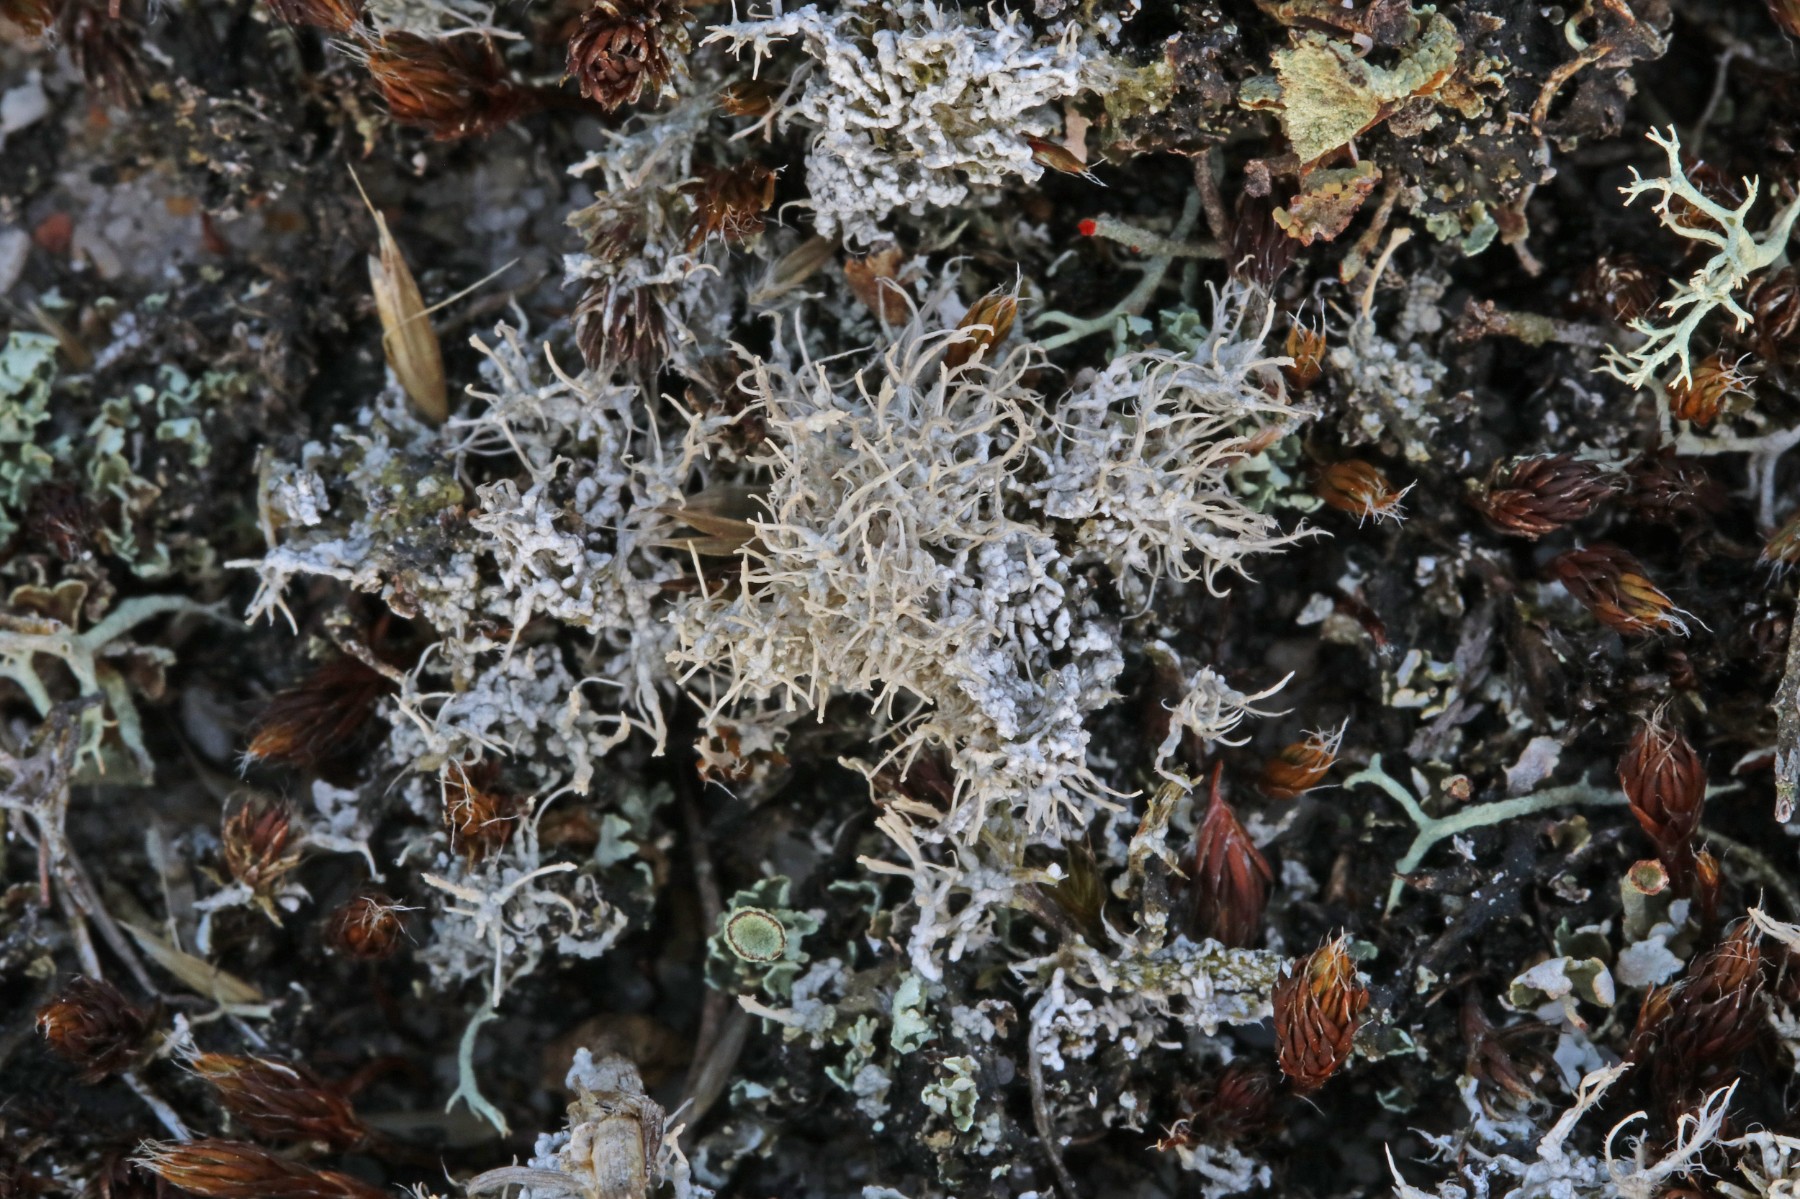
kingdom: Fungi
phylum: Ascomycota
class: Lecanoromycetes
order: Pertusariales
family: Ochrolechiaceae
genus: Ochrolechia
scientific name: Ochrolechia frigida
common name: fjeld-blegskivelav
